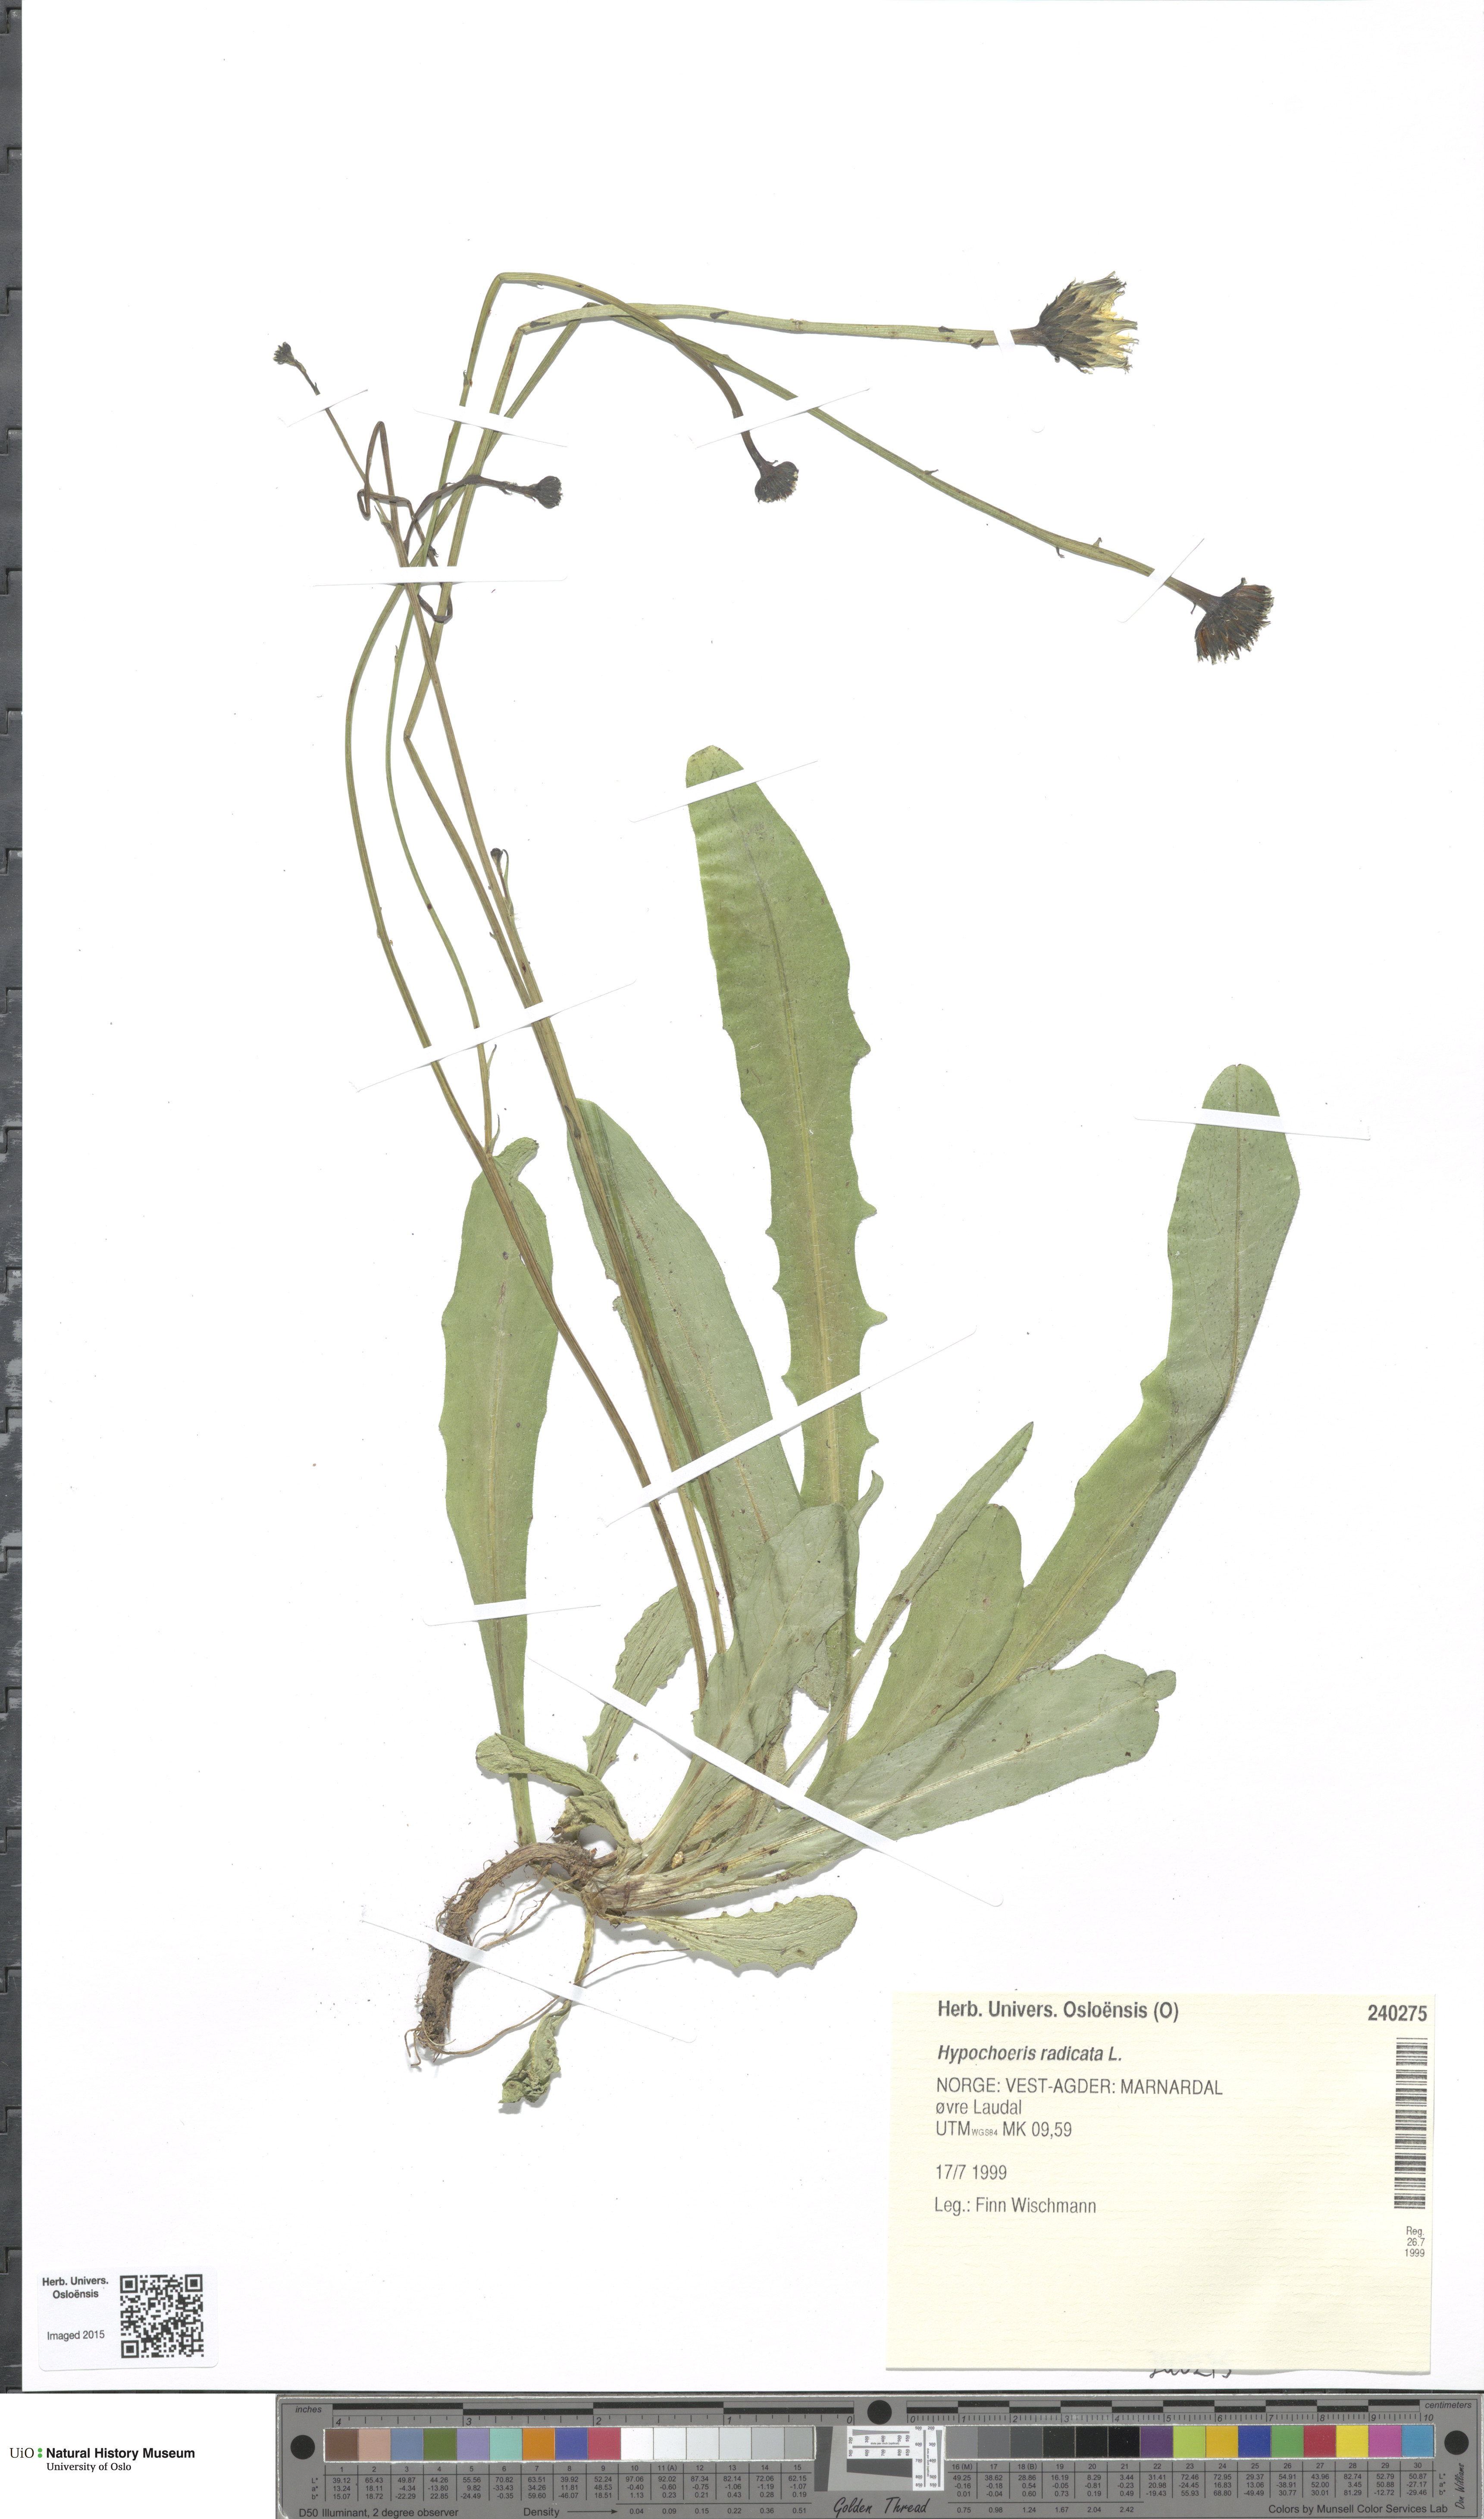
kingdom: Plantae
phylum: Tracheophyta
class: Magnoliopsida
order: Asterales
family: Asteraceae
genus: Hypochaeris
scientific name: Hypochaeris radicata
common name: Flatweed
